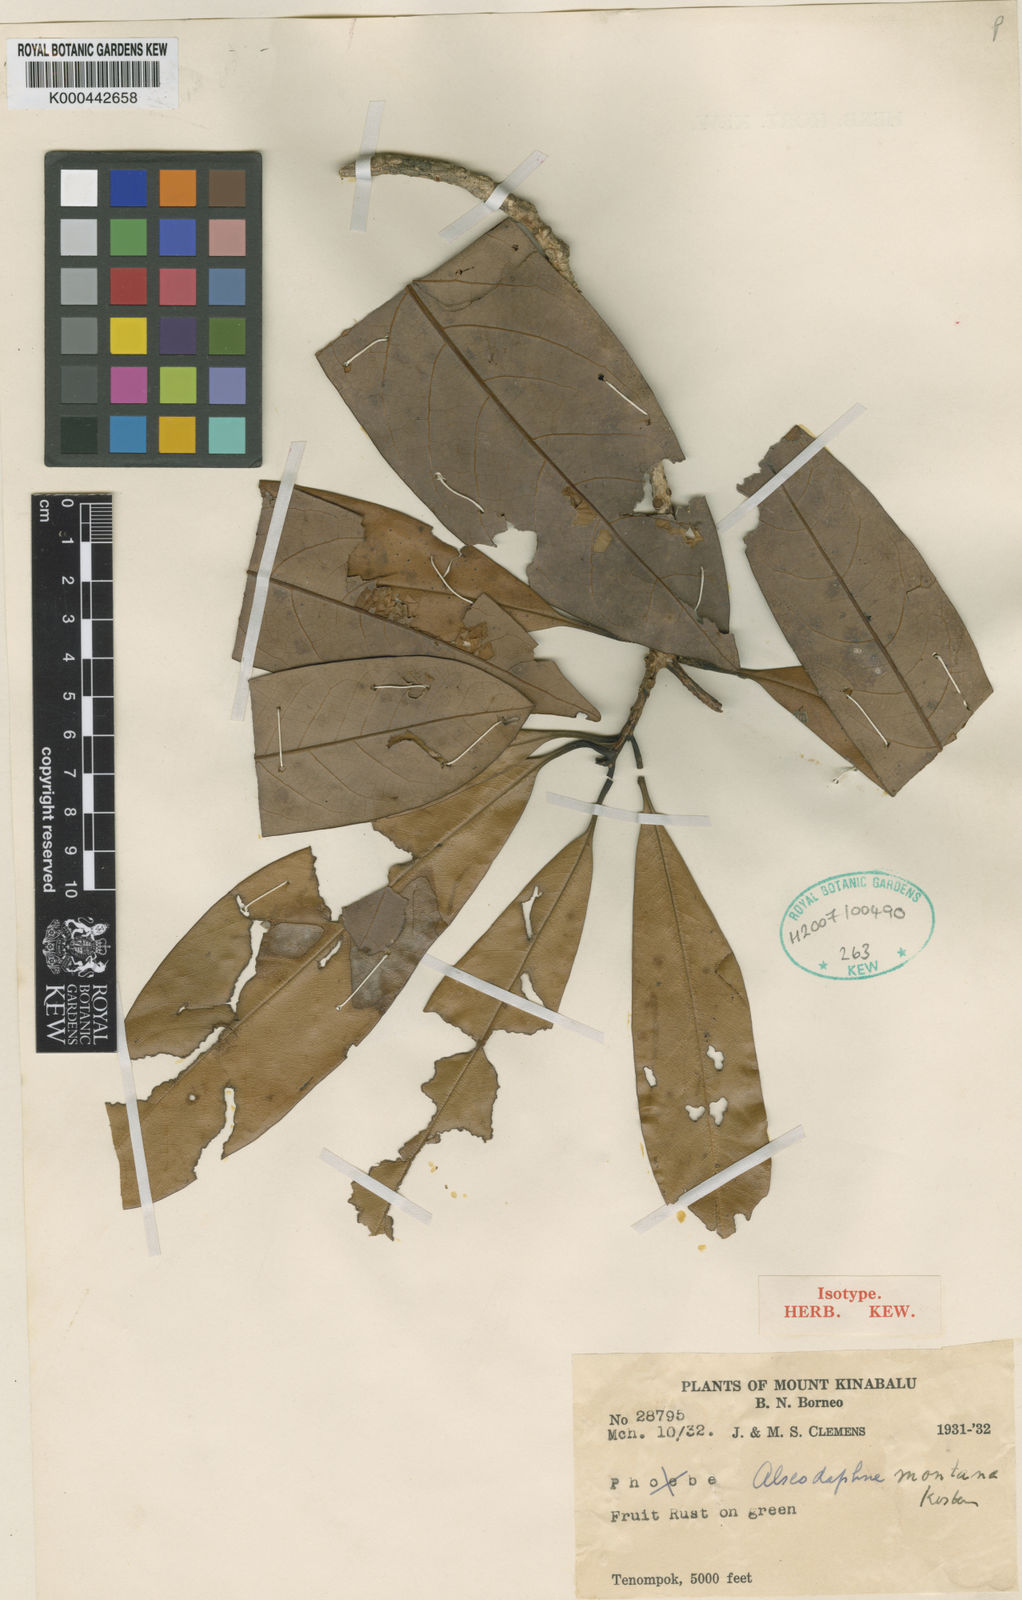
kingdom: Plantae
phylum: Tracheophyta
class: Magnoliopsida
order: Laurales
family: Lauraceae
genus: Alseodaphne
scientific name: Alseodaphne montana
